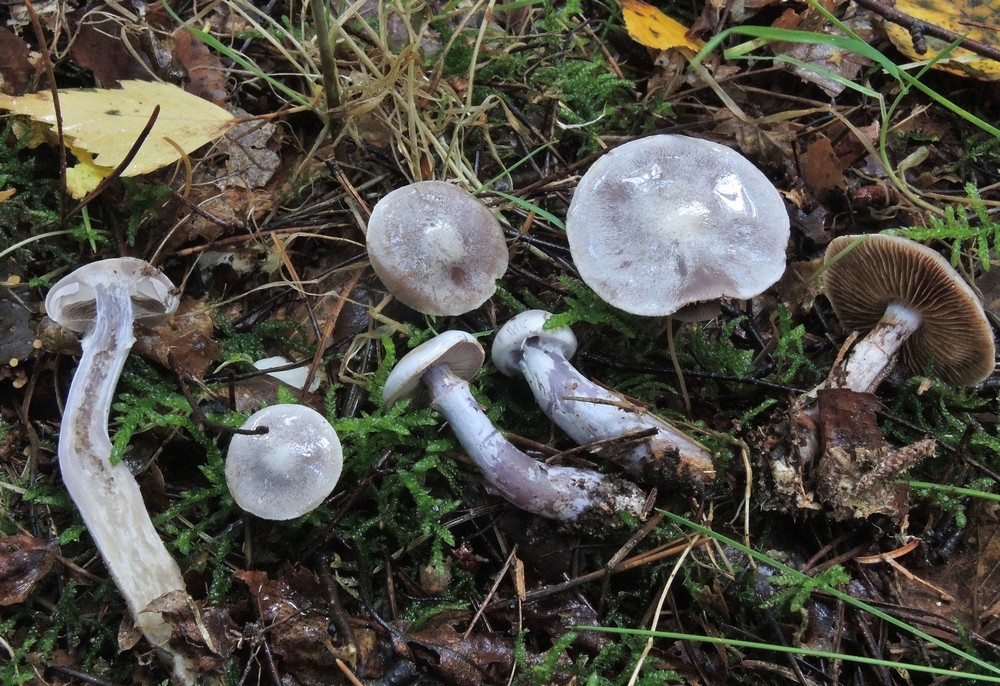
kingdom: Fungi
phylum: Basidiomycota
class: Agaricomycetes
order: Agaricales
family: Cortinariaceae
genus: Cortinarius
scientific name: Cortinarius acutispissipes
